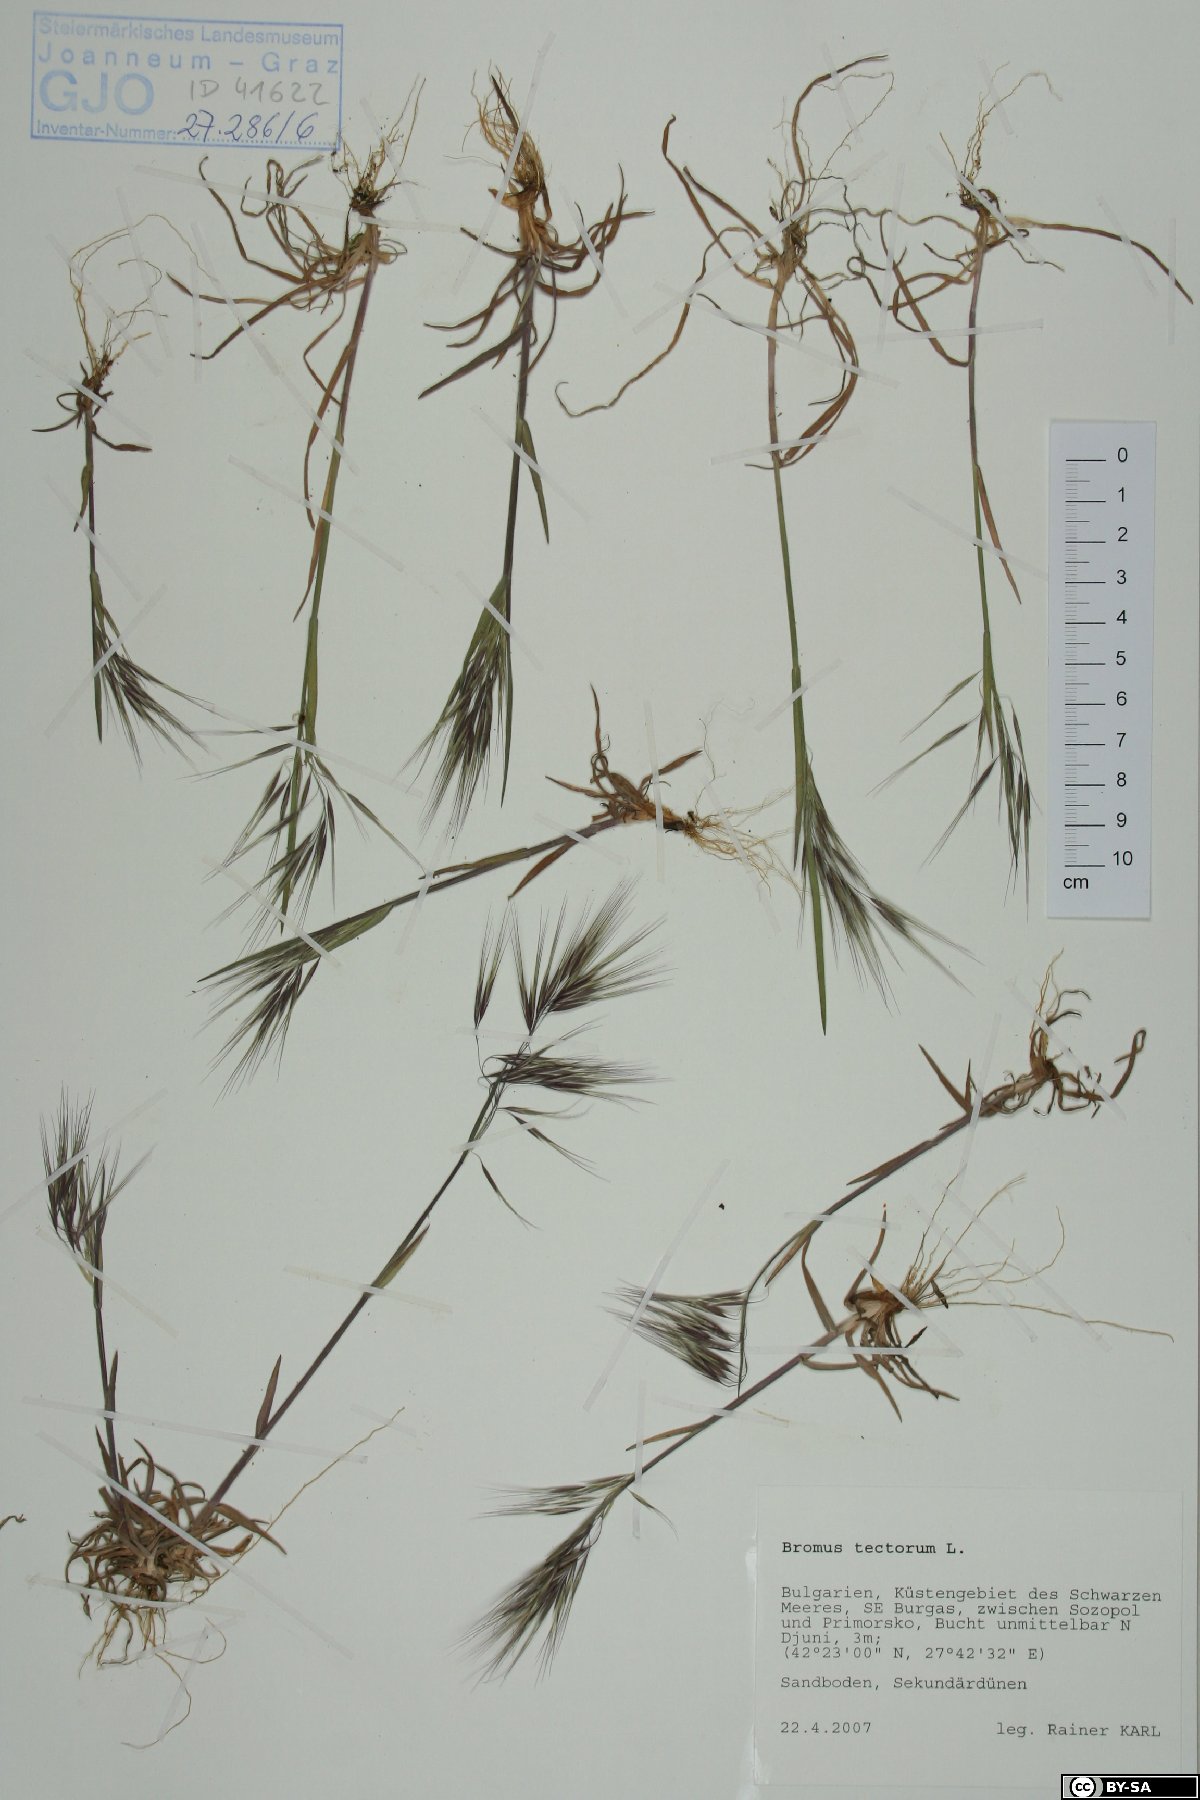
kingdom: Plantae
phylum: Tracheophyta
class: Liliopsida
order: Poales
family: Poaceae
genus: Bromus
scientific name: Bromus tectorum
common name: Cheatgrass
